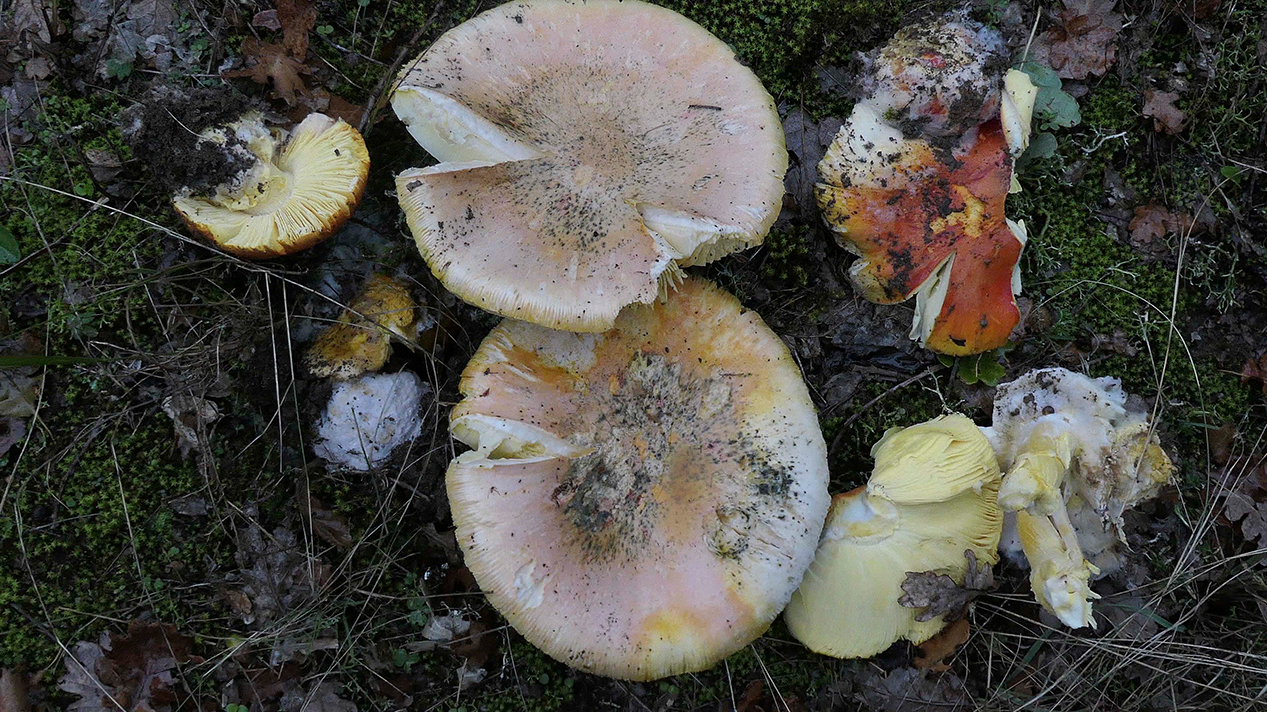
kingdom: Fungi
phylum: Basidiomycota
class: Agaricomycetes
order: Agaricales
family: Amanitaceae
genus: Amanita
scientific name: Amanita caesarea
